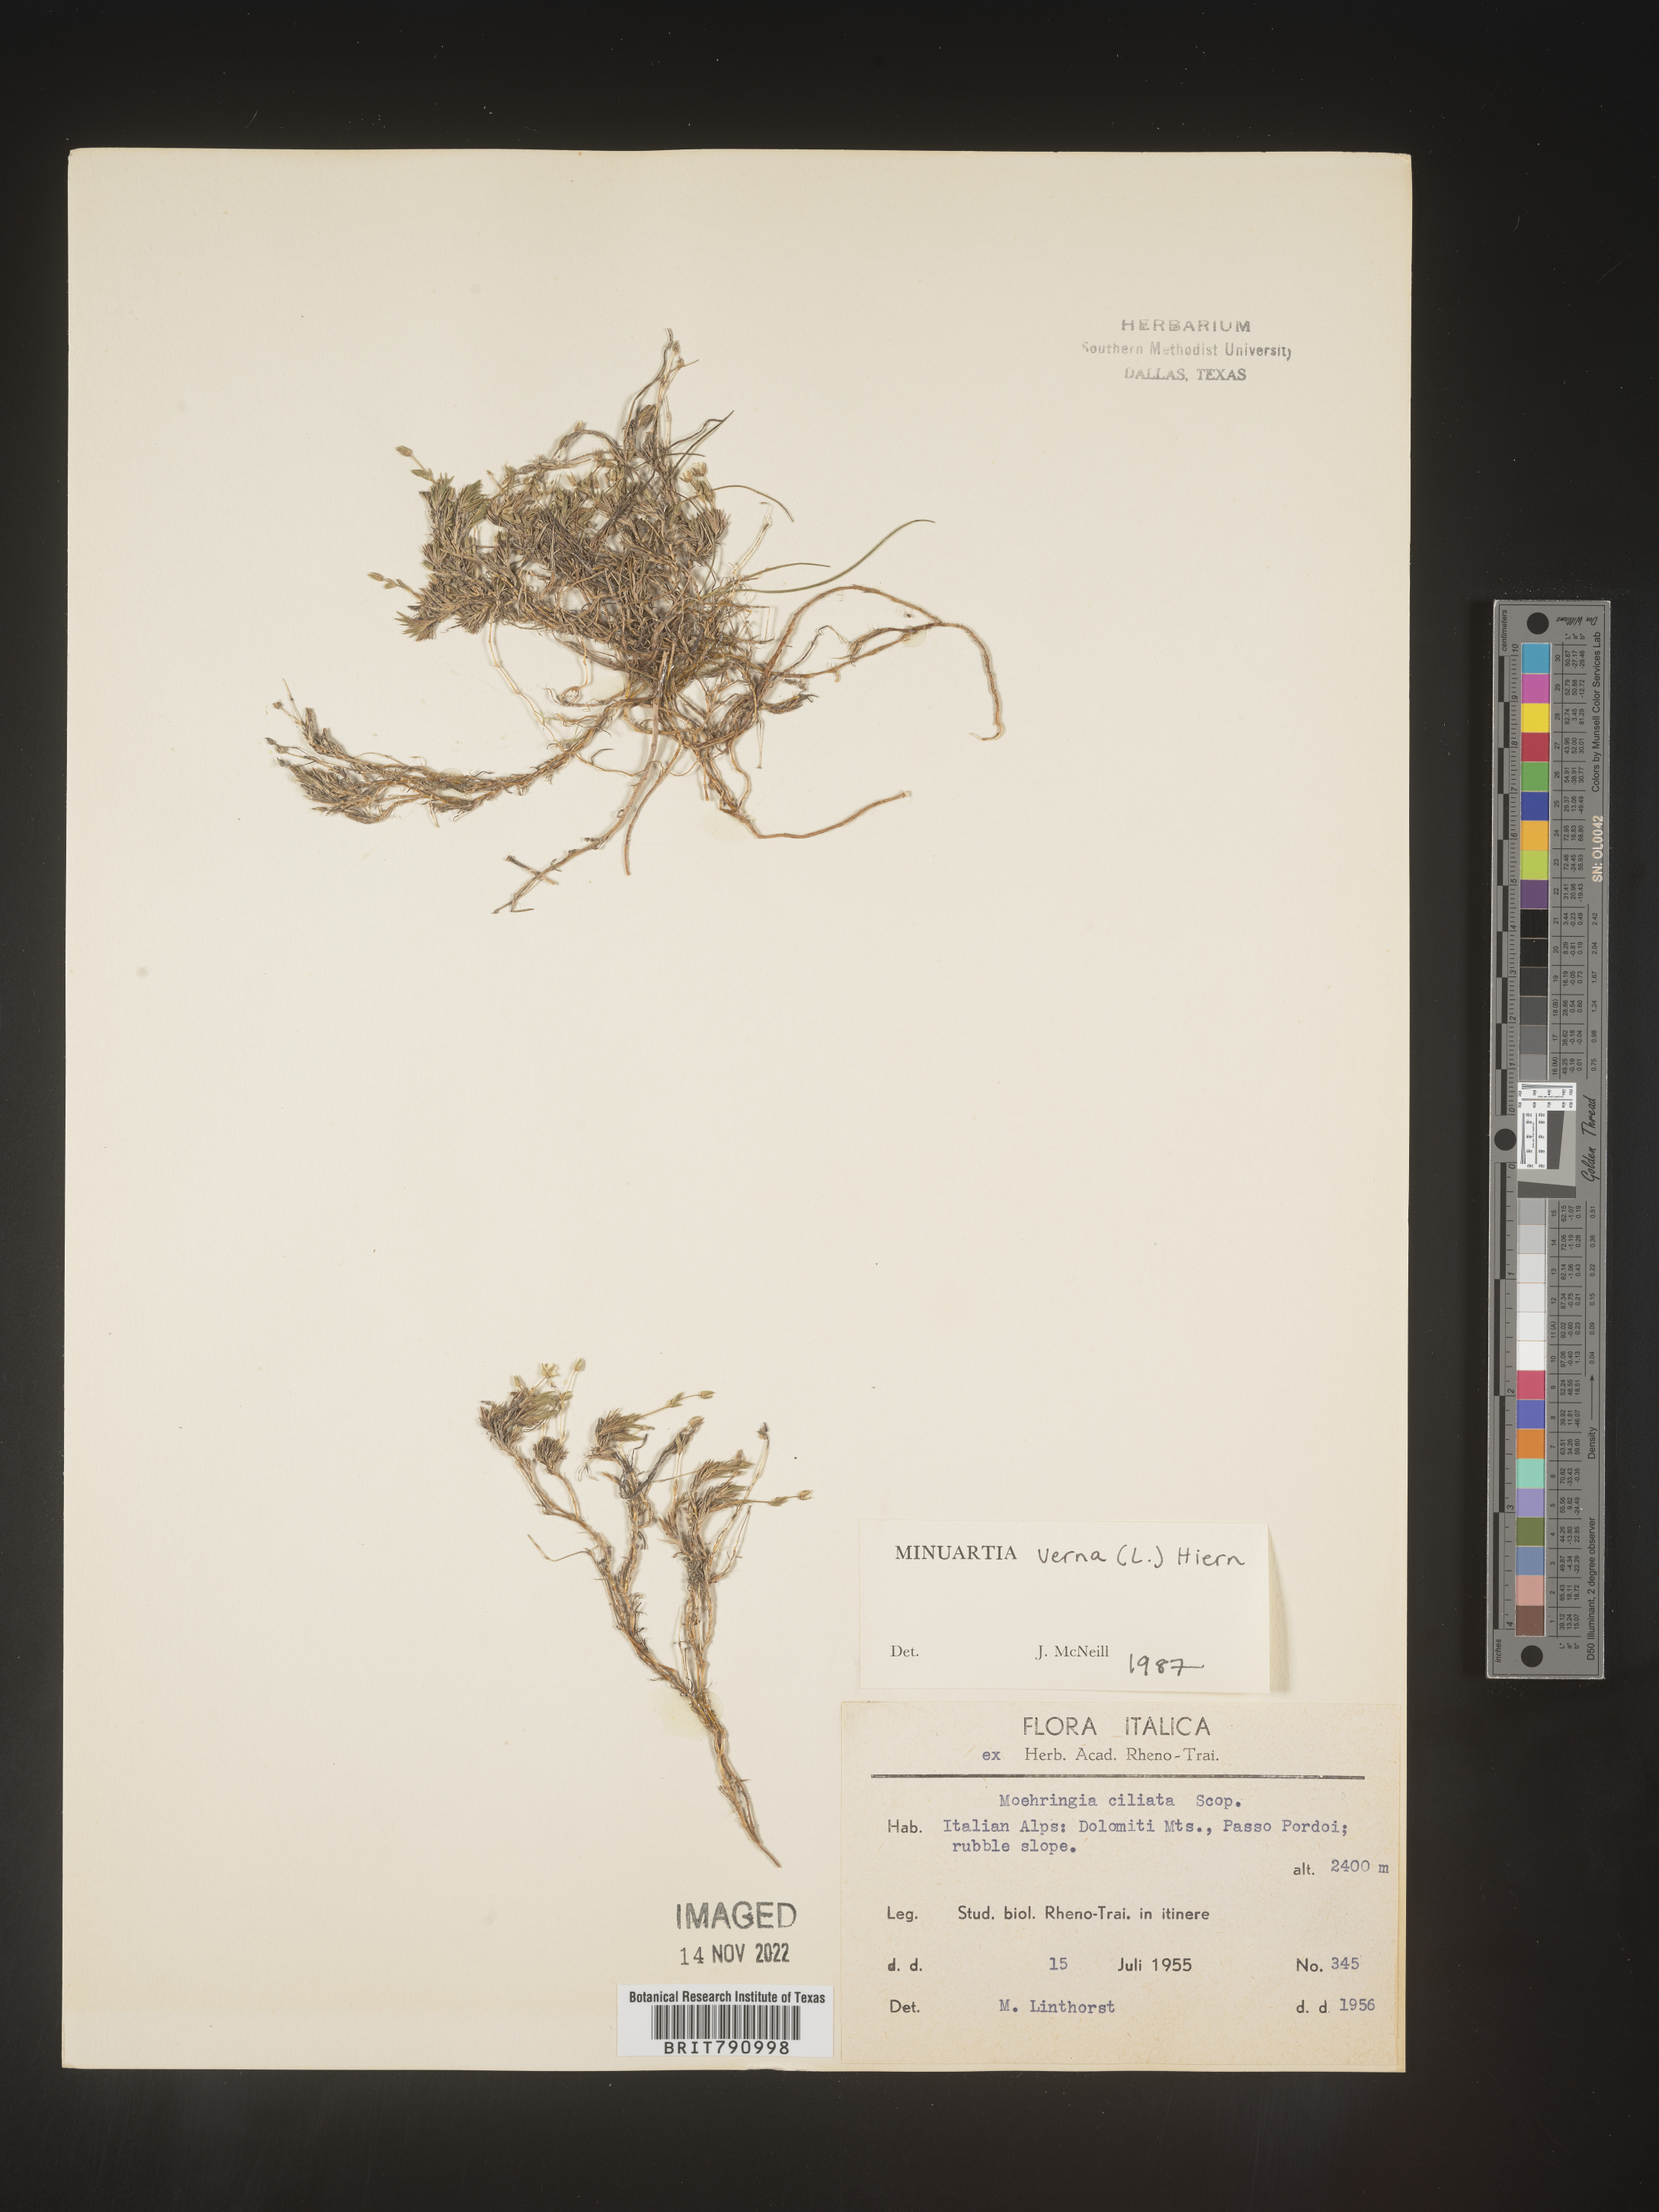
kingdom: Plantae
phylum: Tracheophyta
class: Magnoliopsida
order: Caryophyllales
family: Caryophyllaceae
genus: Minuartia
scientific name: Minuartia
